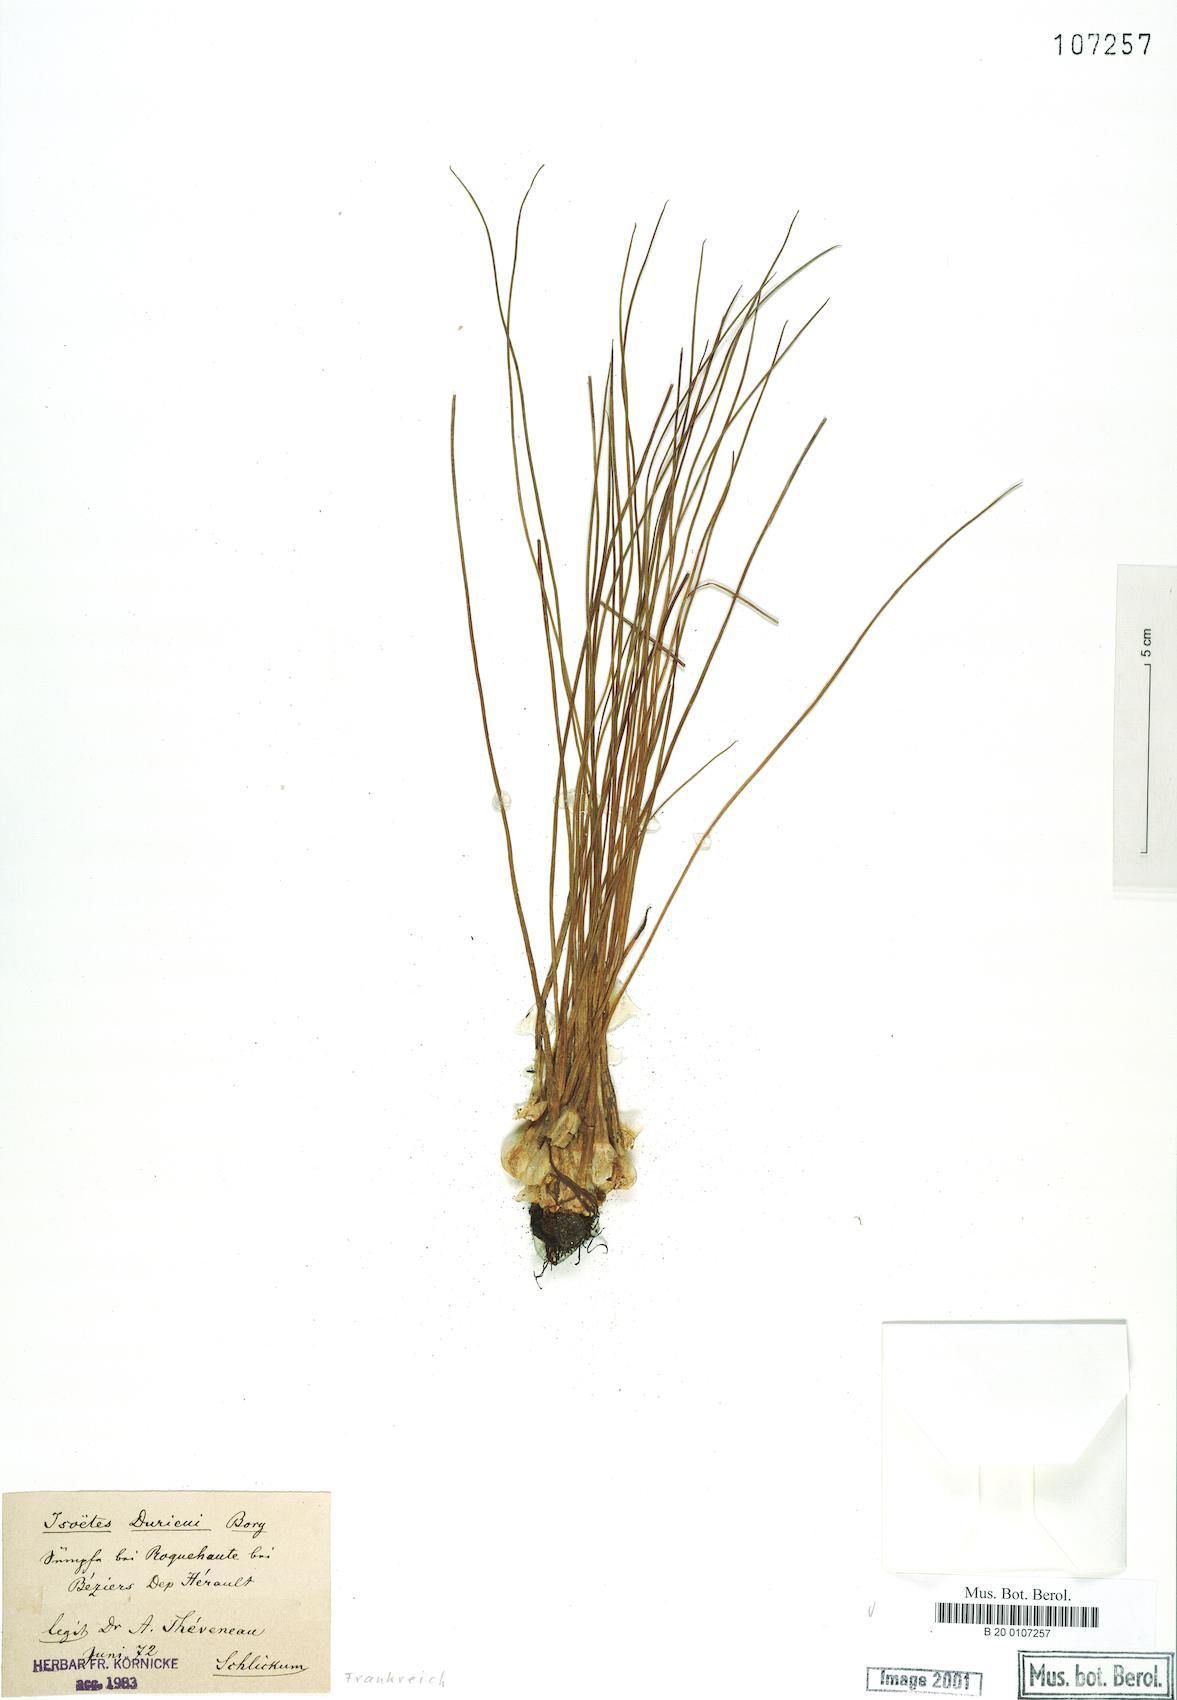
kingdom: Plantae
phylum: Tracheophyta
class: Lycopodiopsida
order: Isoetales
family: Isoetaceae
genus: Isoetes
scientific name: Isoetes duriei
